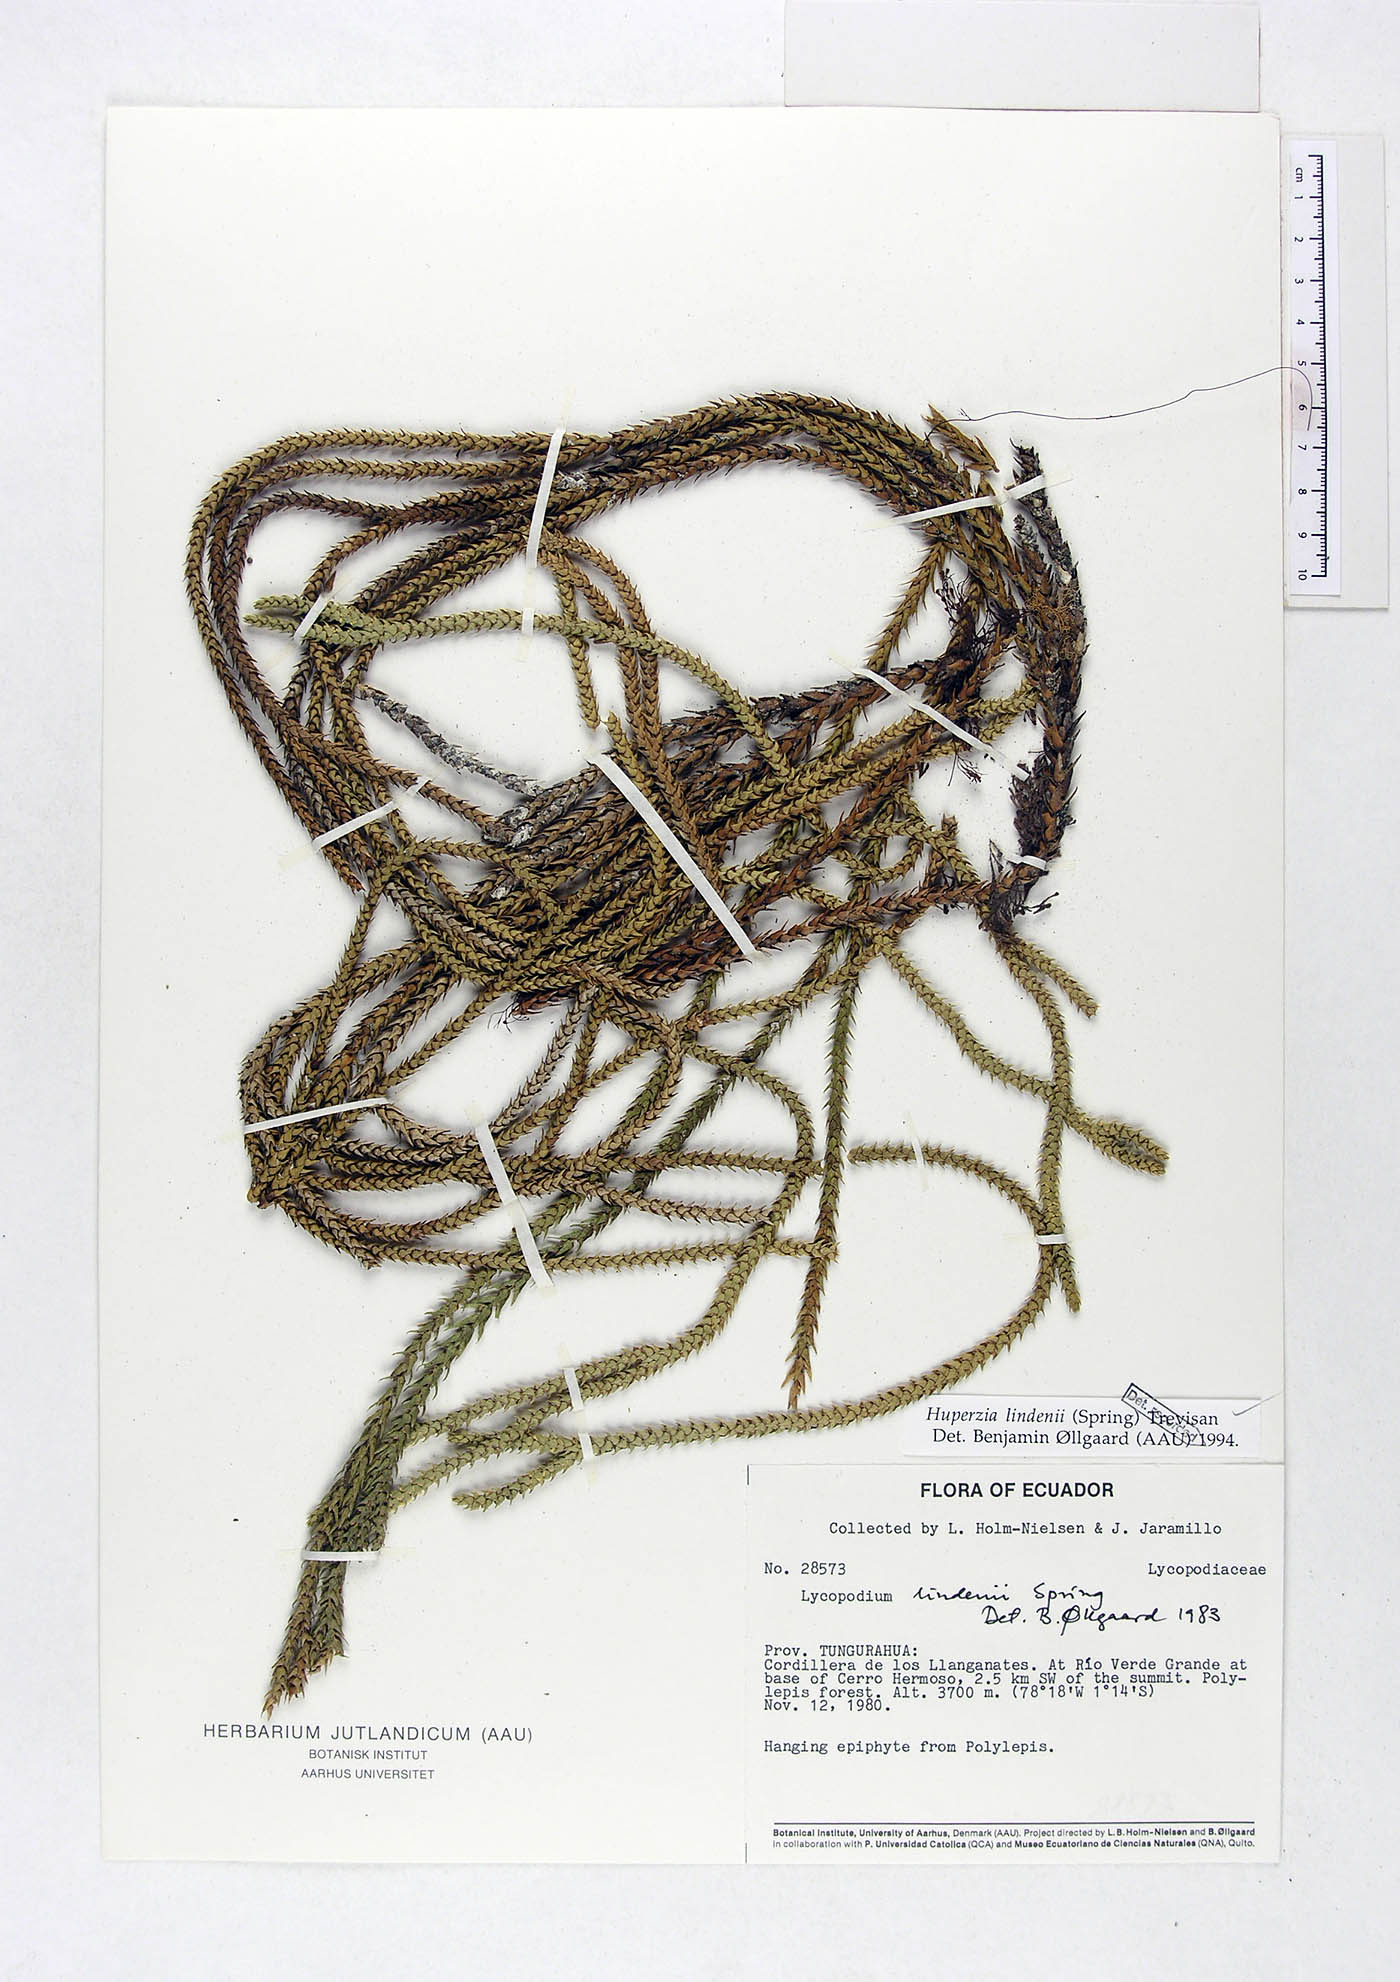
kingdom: Plantae
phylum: Tracheophyta
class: Lycopodiopsida
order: Lycopodiales
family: Lycopodiaceae
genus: Phlegmariurus
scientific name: Phlegmariurus lindenii
